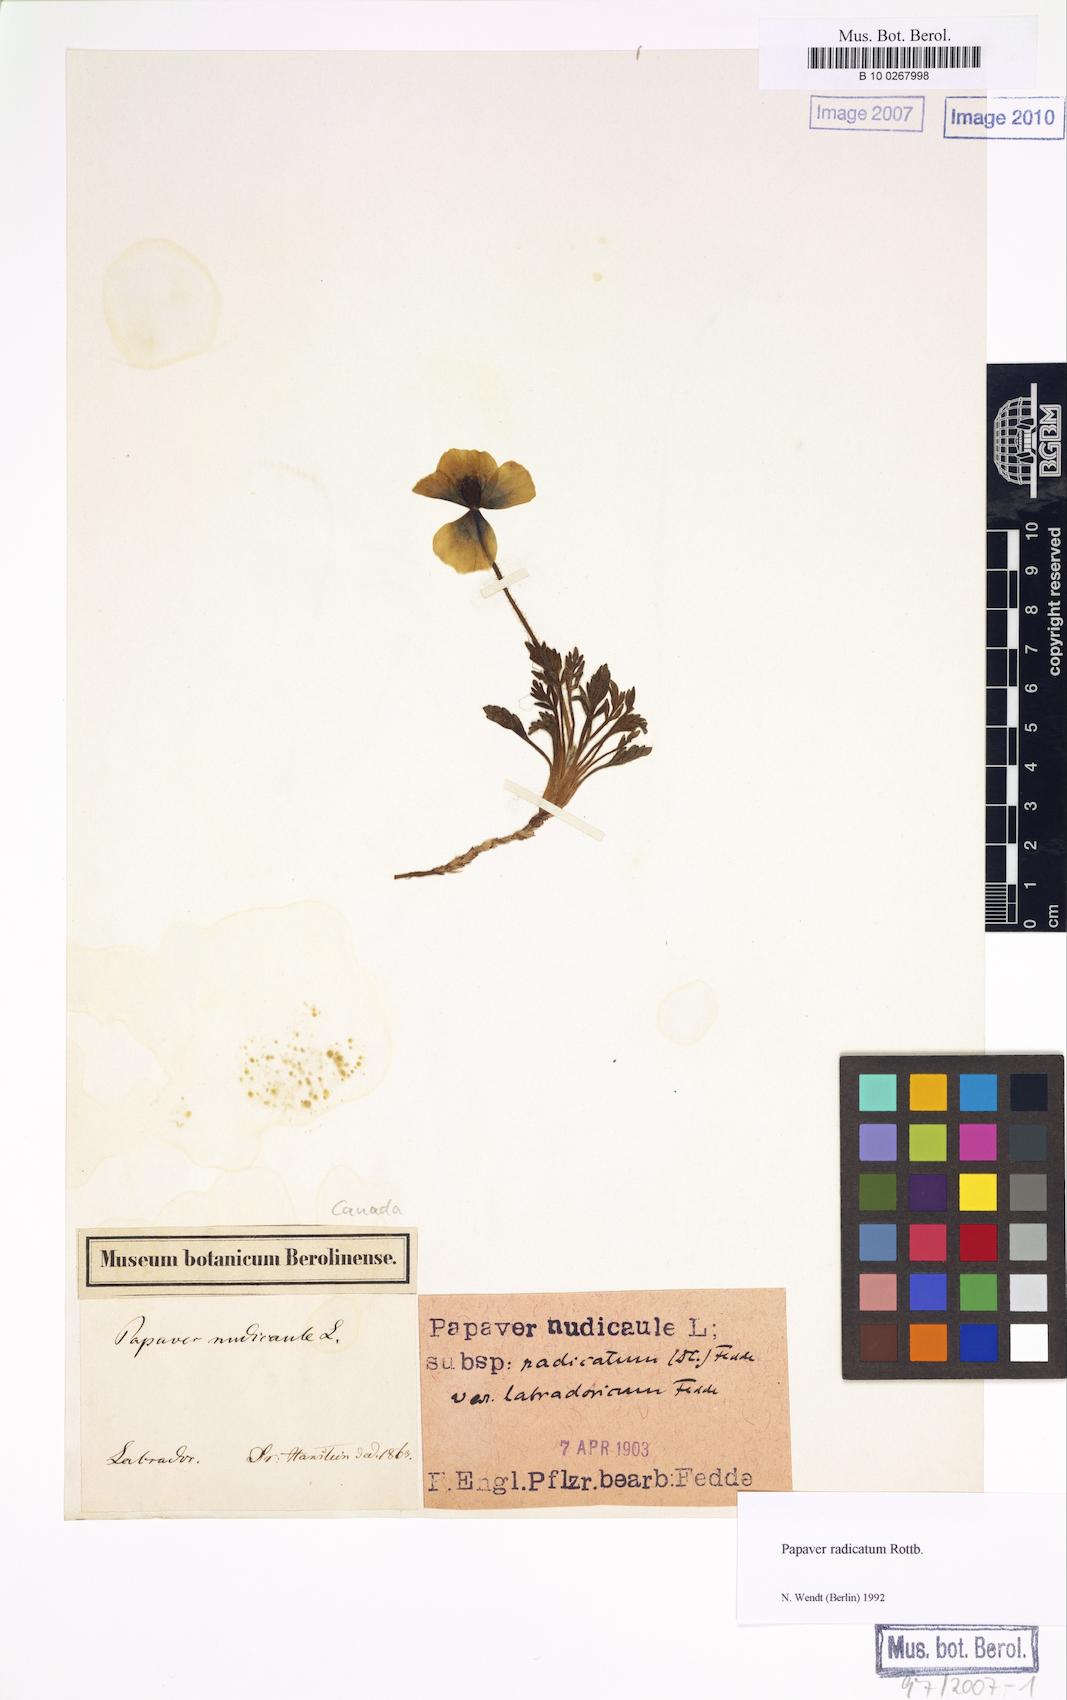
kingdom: Plantae
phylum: Tracheophyta
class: Magnoliopsida
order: Ranunculales
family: Papaveraceae
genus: Papaver
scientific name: Papaver radicatum
